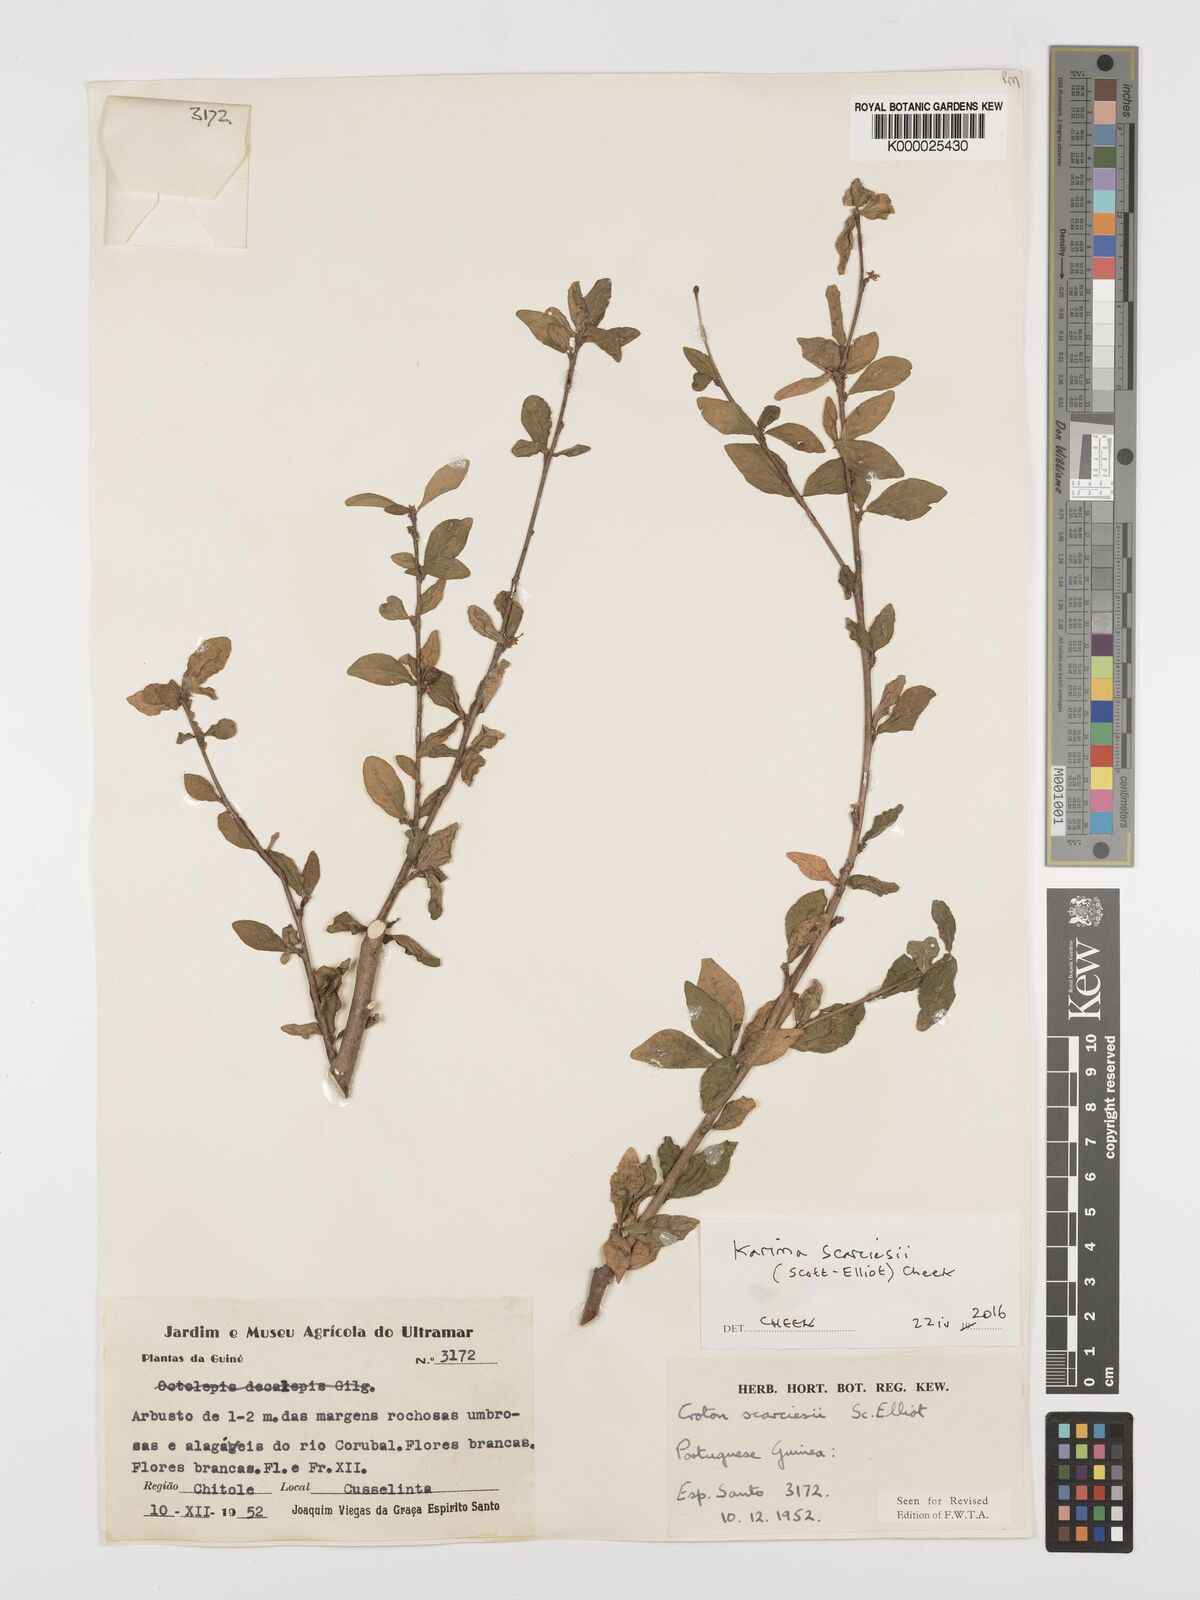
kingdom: Plantae
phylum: Tracheophyta
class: Magnoliopsida
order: Gentianales
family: Rubiaceae
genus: Hymenocoleus
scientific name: Hymenocoleus subipecacuanha
